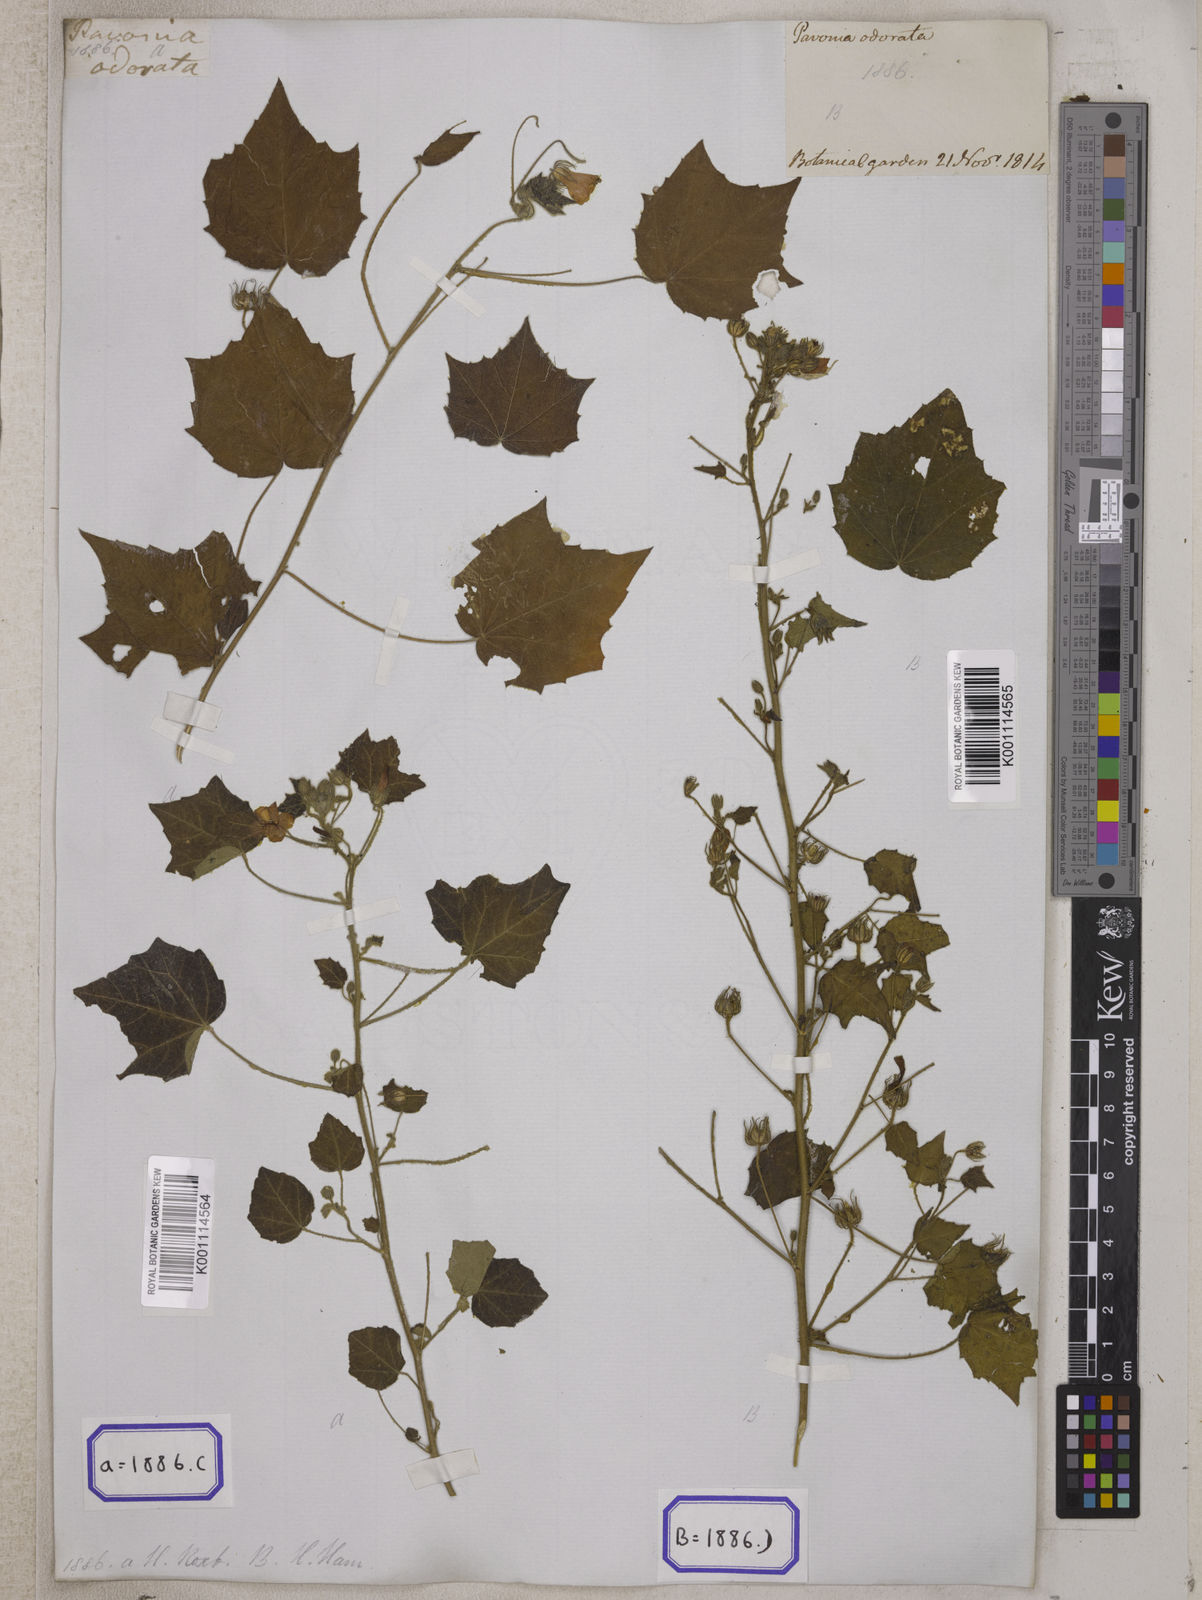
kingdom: Plantae
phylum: Tracheophyta
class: Magnoliopsida
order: Malvales
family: Malvaceae
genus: Pavonia
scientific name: Pavonia zeylonica
